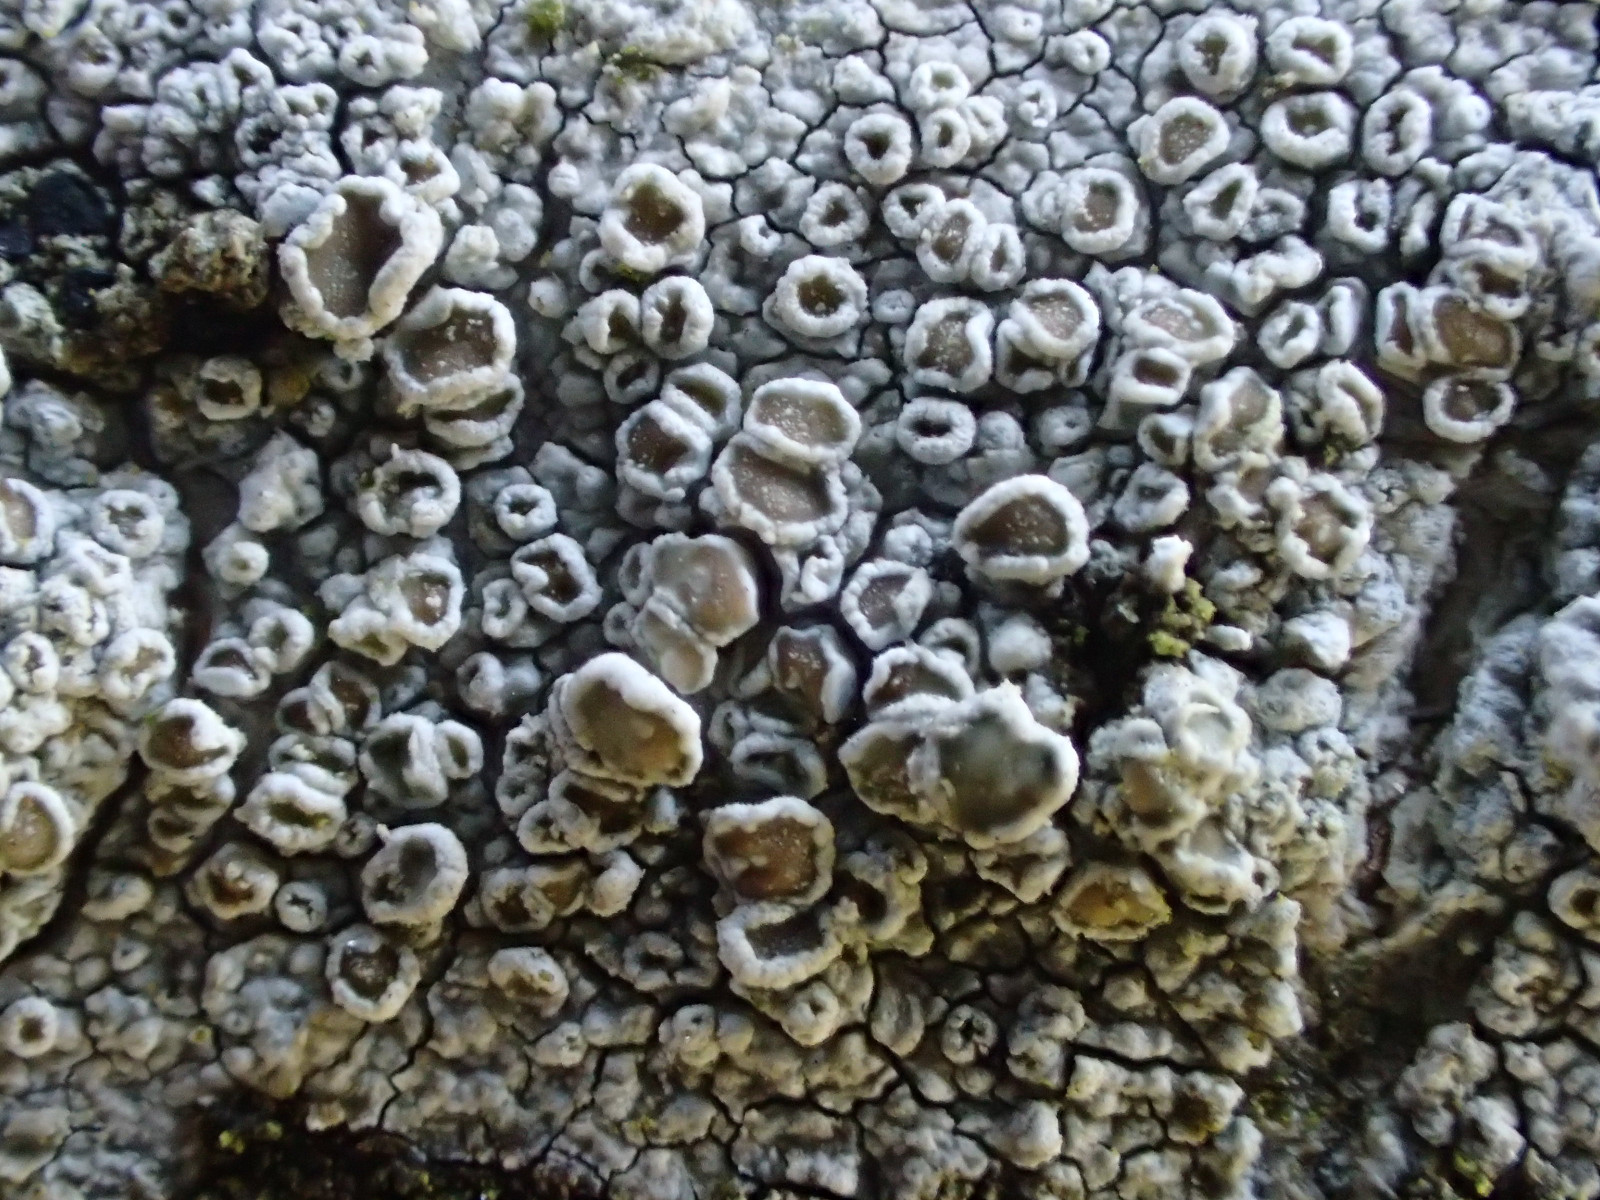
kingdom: Fungi
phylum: Ascomycota
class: Lecanoromycetes
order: Lecanorales
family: Lecanoraceae
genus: Lecanora
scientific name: Lecanora chlarotera
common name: brun kantskivelav
